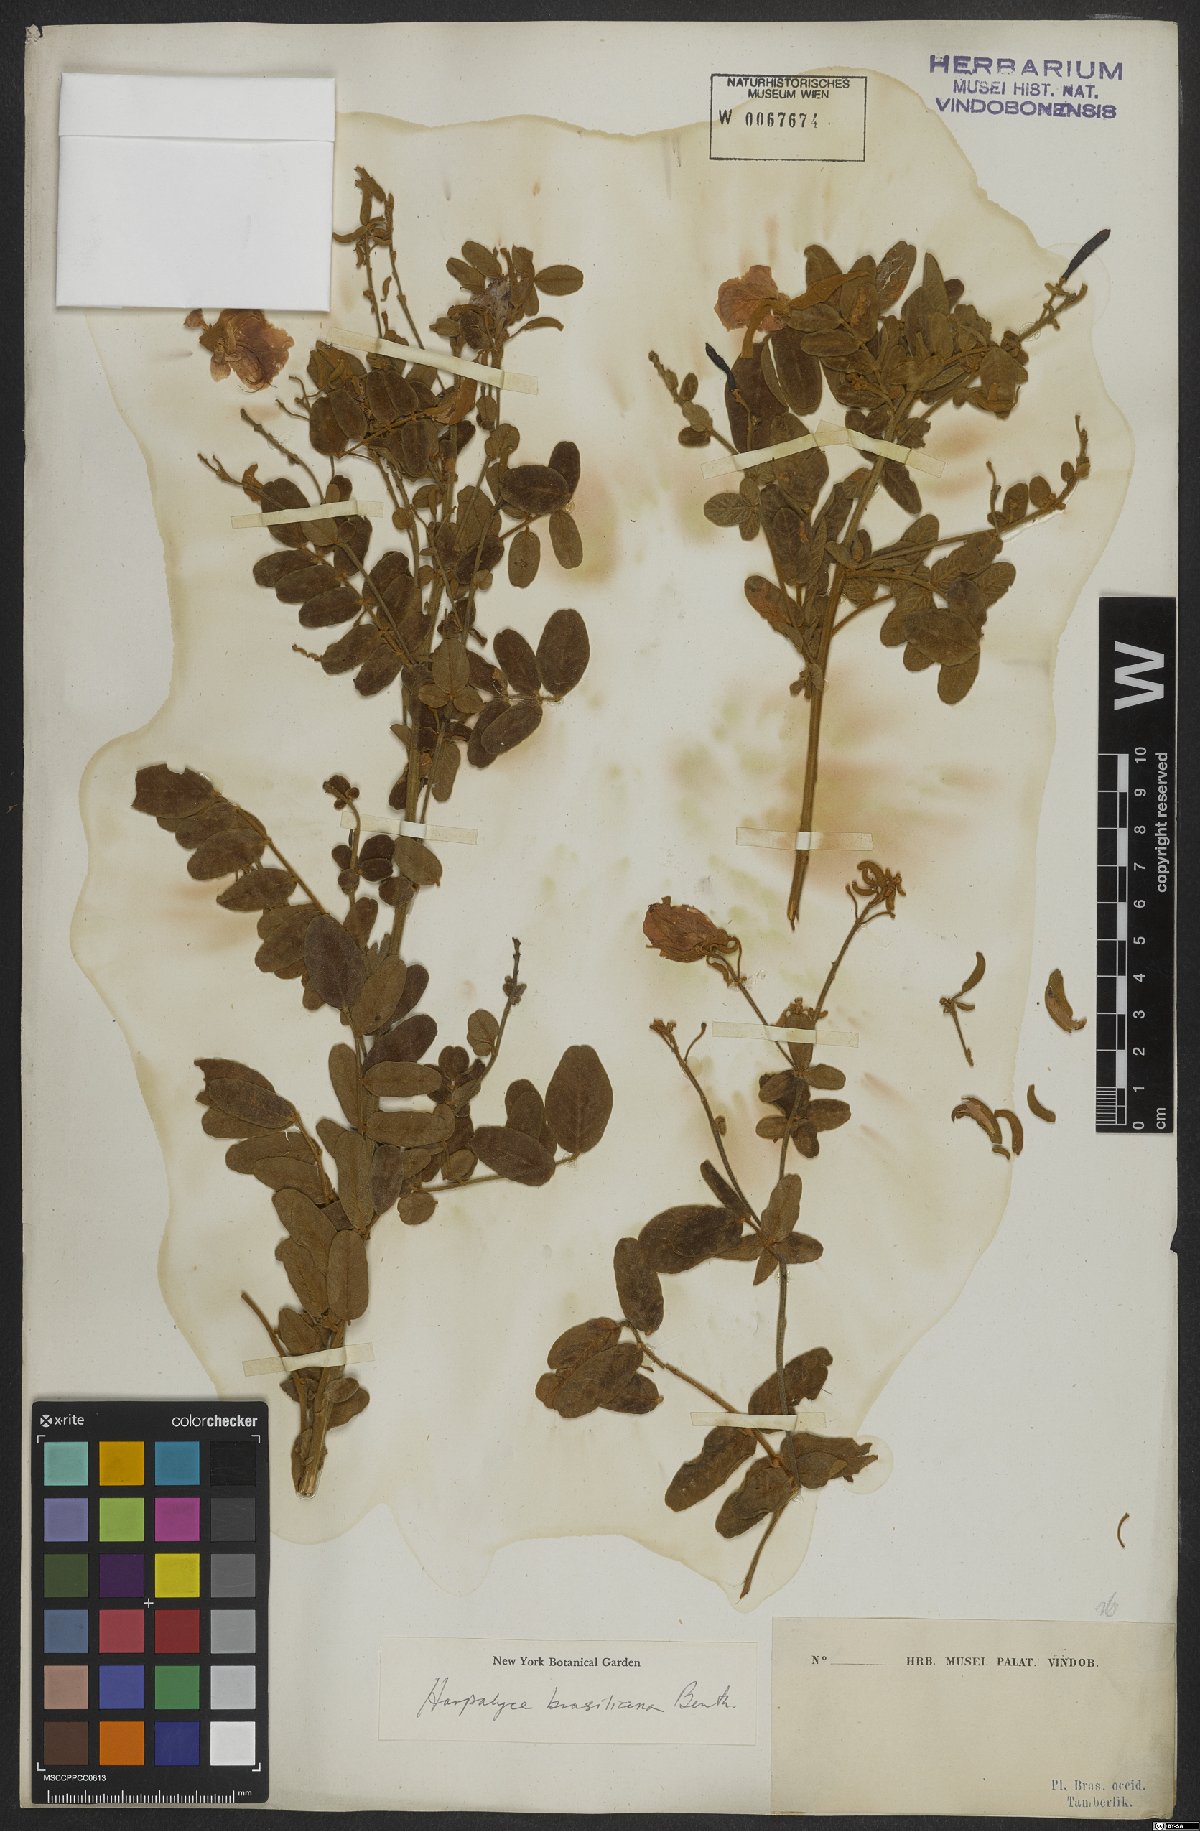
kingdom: Plantae
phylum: Tracheophyta
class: Magnoliopsida
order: Fabales
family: Fabaceae
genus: Harpalyce
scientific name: Harpalyce brasiliana
